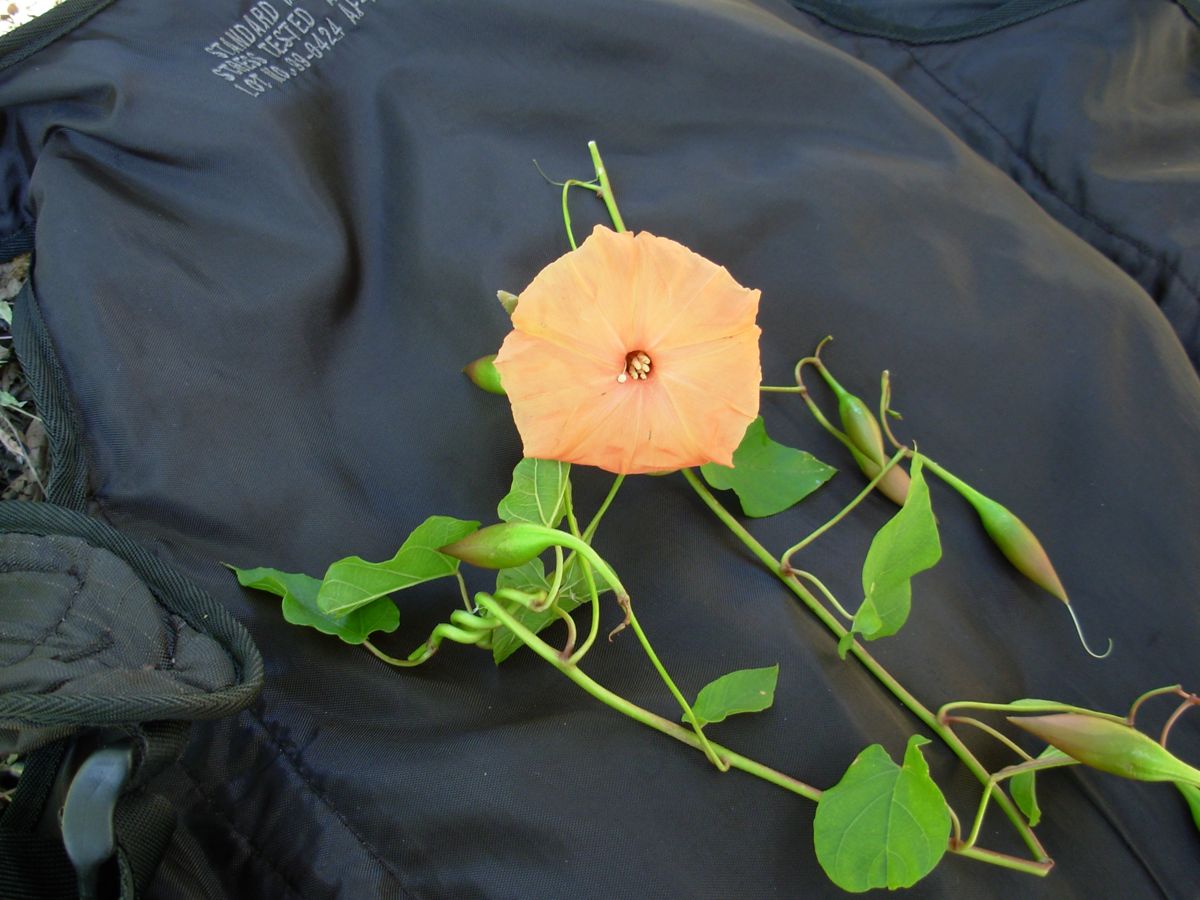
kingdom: Plantae
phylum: Tracheophyta
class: Magnoliopsida
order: Solanales
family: Convolvulaceae
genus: Operculina
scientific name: Operculina pteripes
